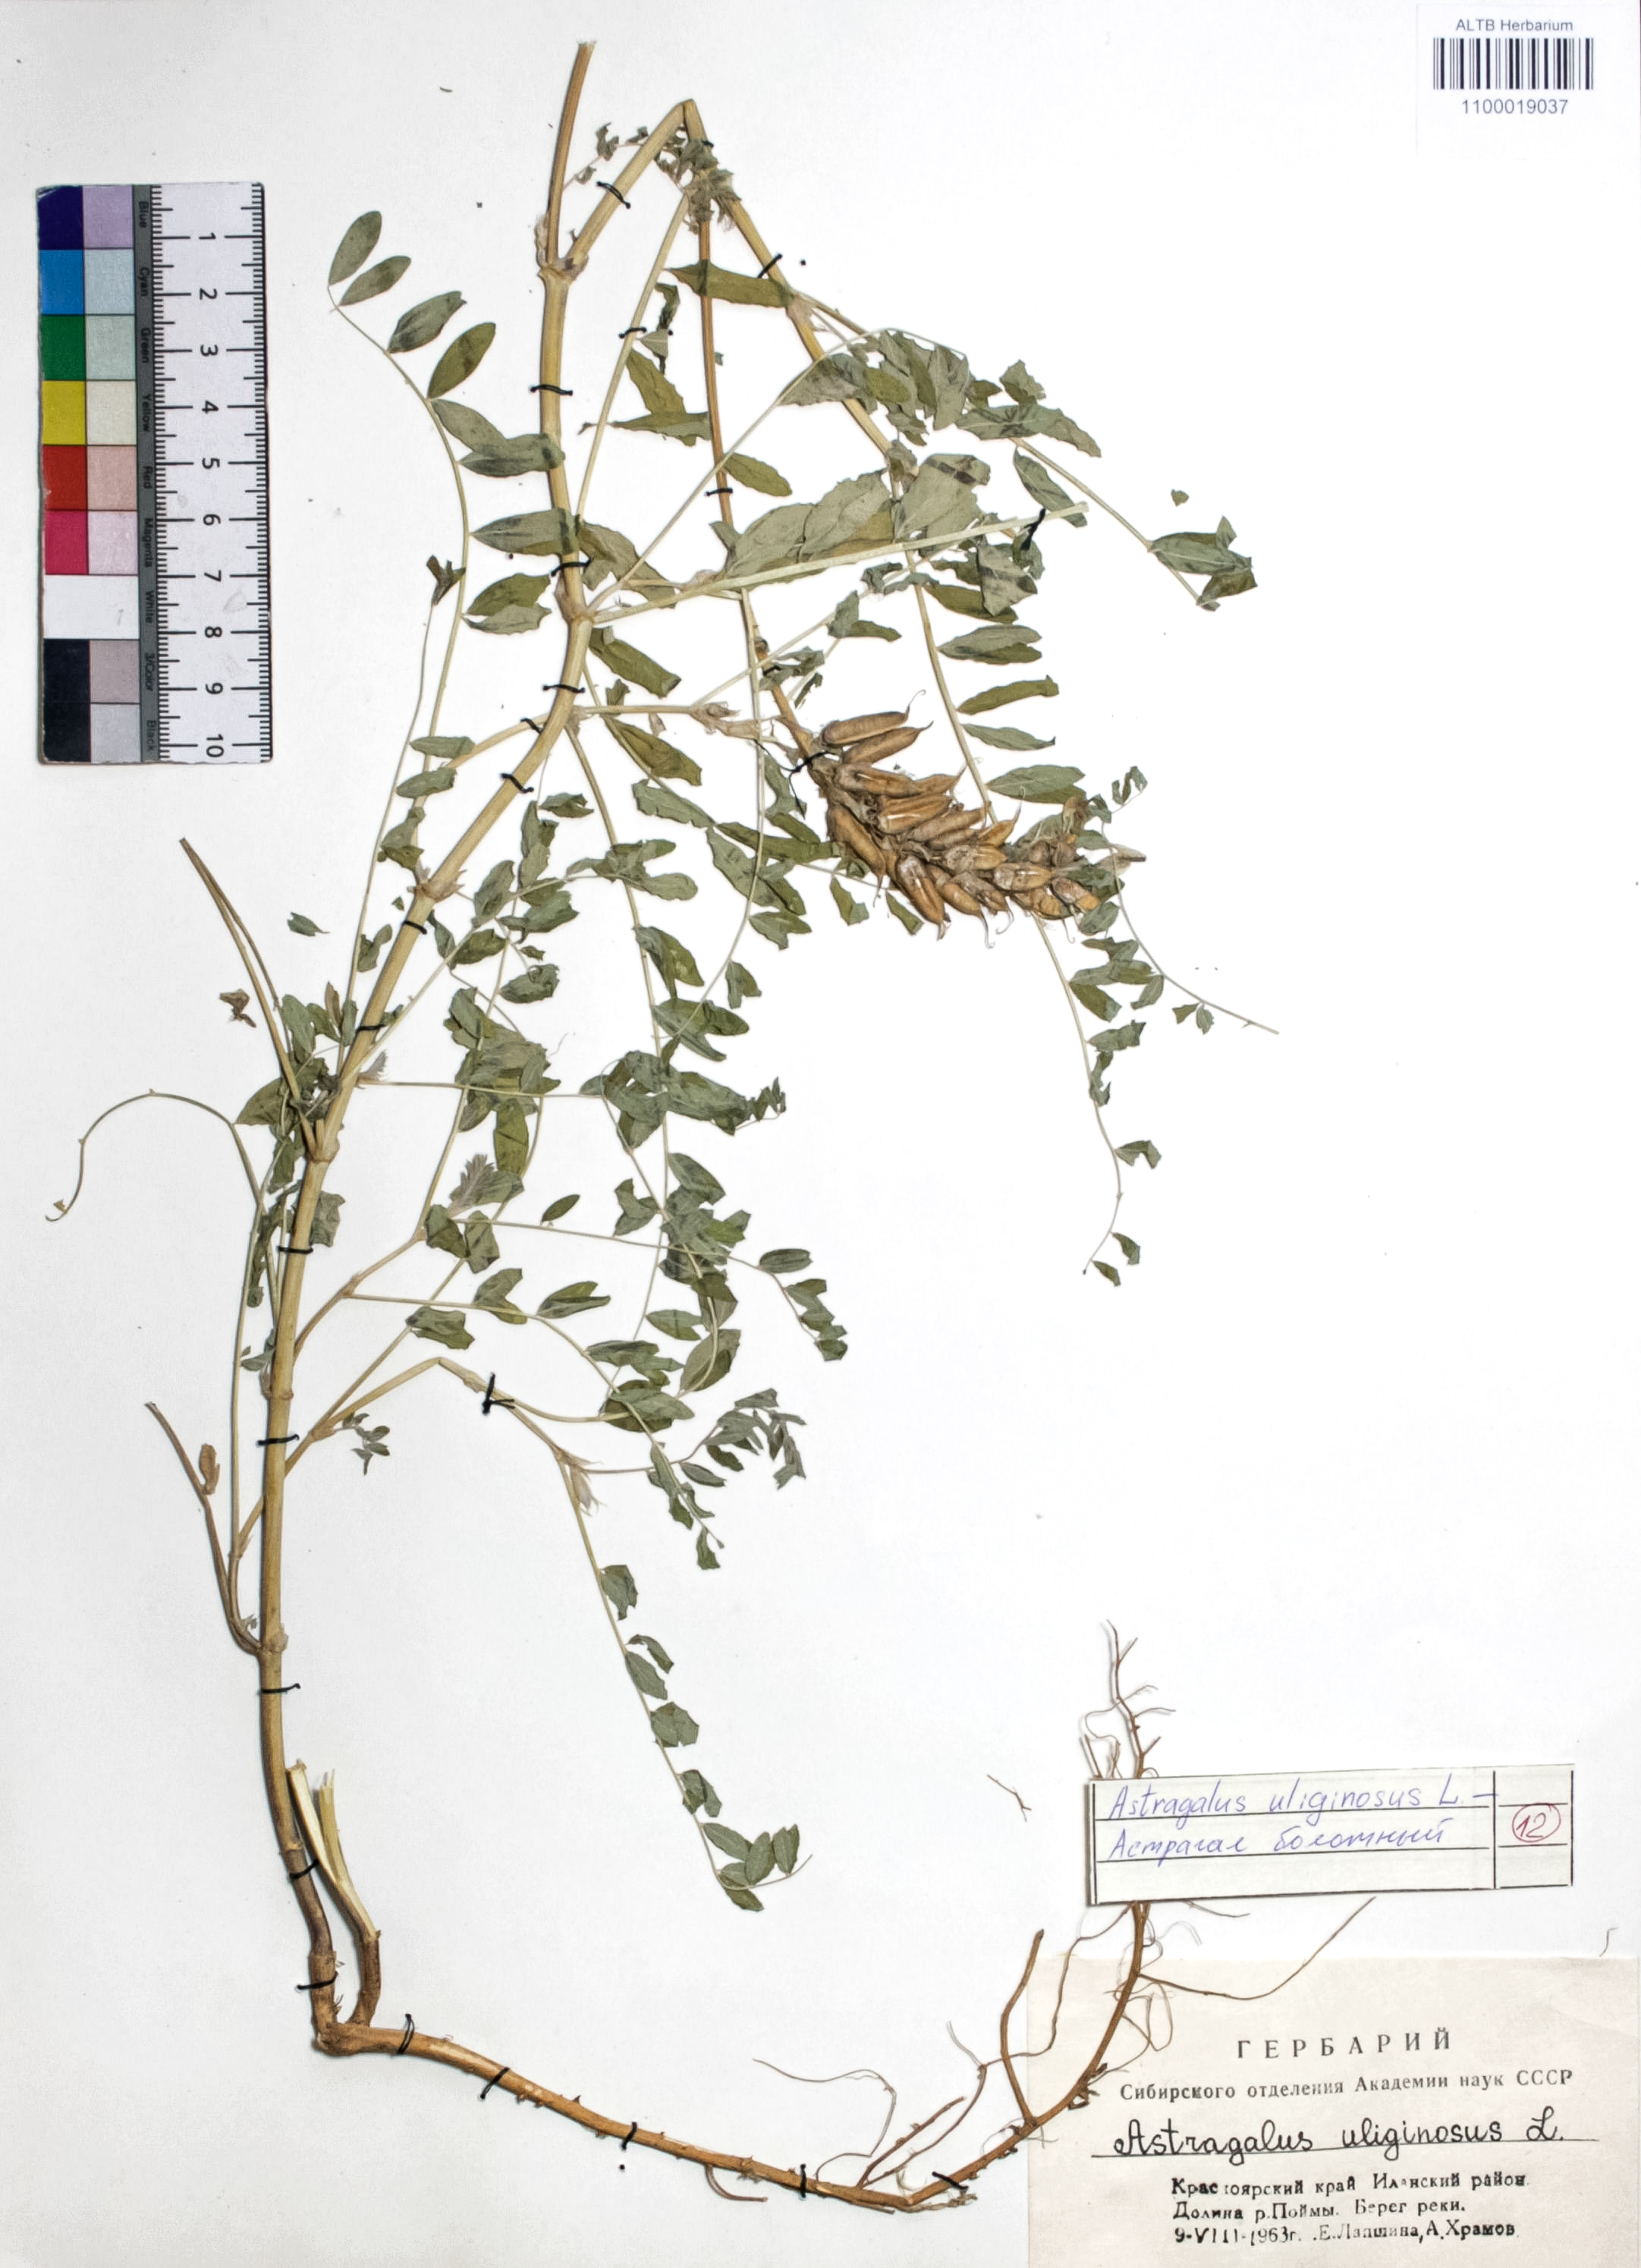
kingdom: Plantae
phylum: Tracheophyta
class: Magnoliopsida
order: Fabales
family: Fabaceae
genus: Astragalus
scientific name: Astragalus uliginosus
